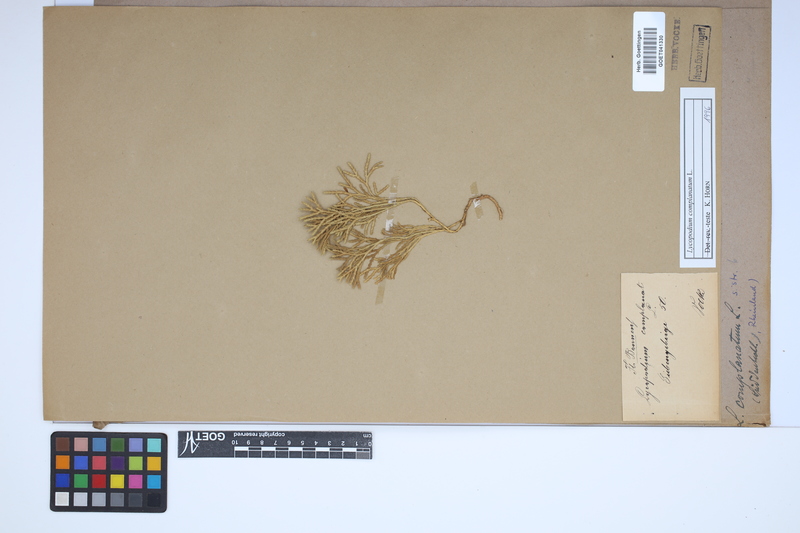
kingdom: Plantae
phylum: Tracheophyta
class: Lycopodiopsida
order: Lycopodiales
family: Lycopodiaceae
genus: Diphasiastrum
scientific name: Diphasiastrum complanatum
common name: Northern running-pine
